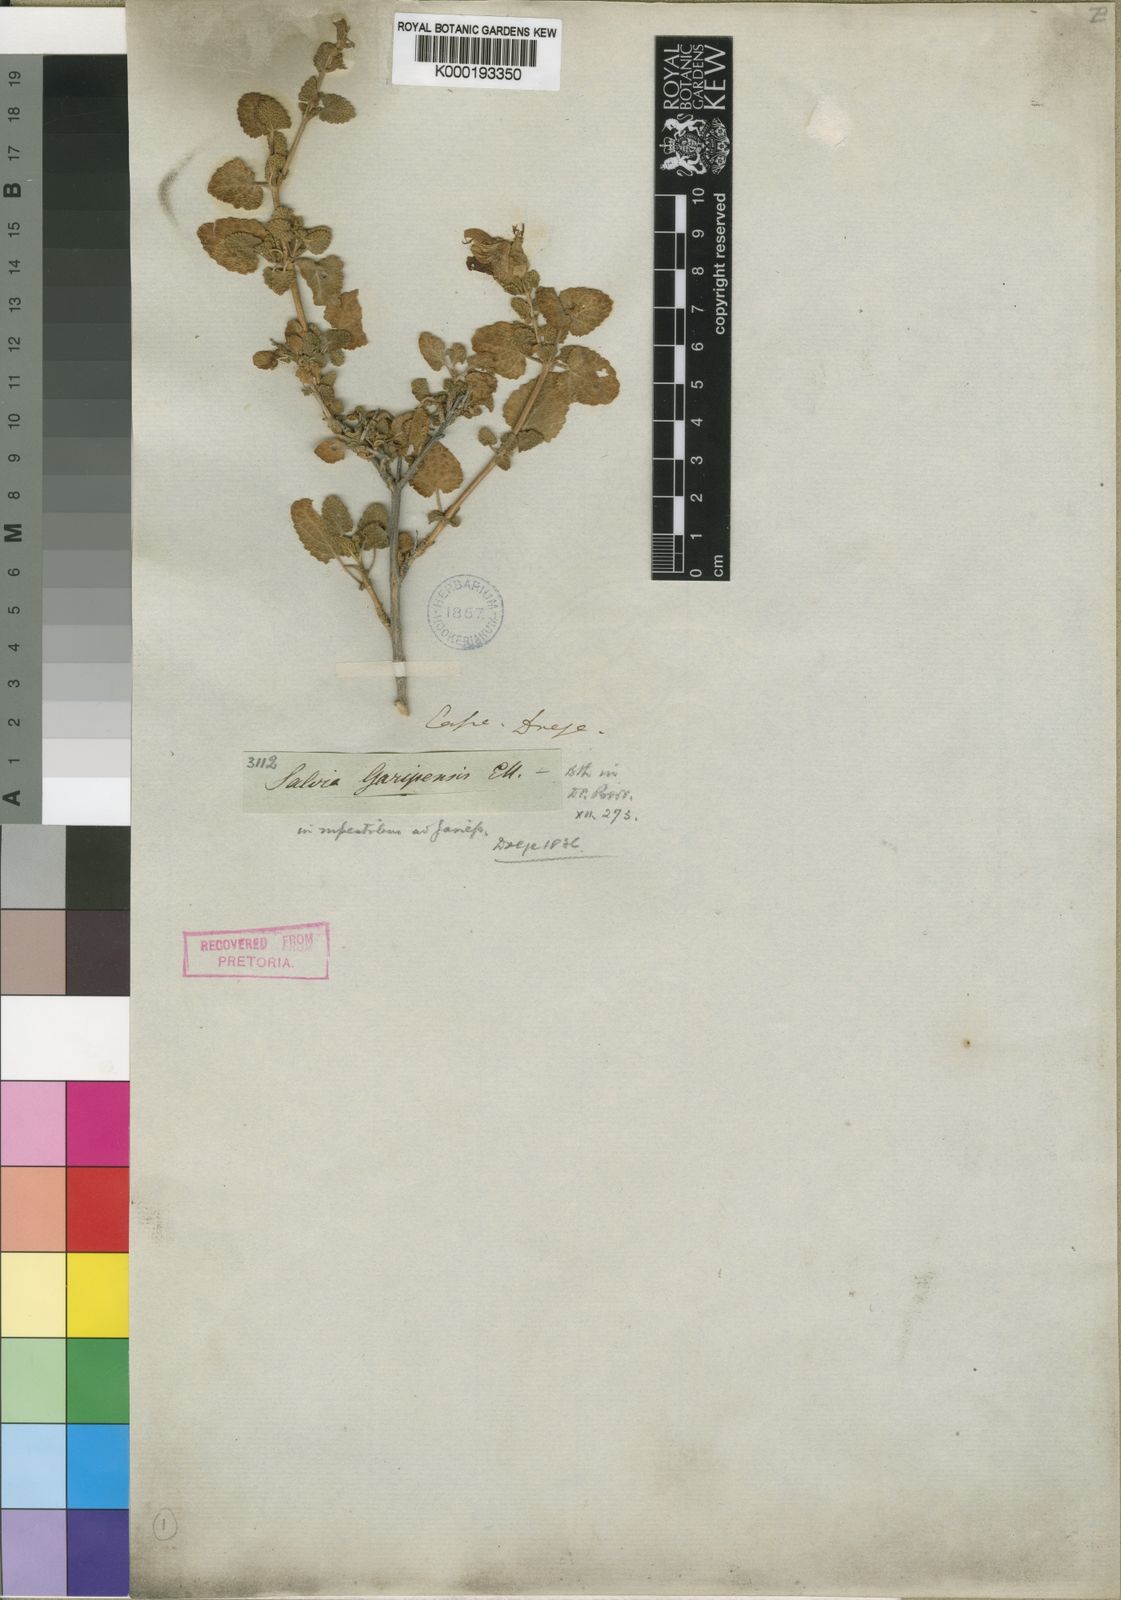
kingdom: Plantae
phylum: Tracheophyta
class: Magnoliopsida
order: Lamiales
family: Lamiaceae
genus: Salvia
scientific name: Salvia
